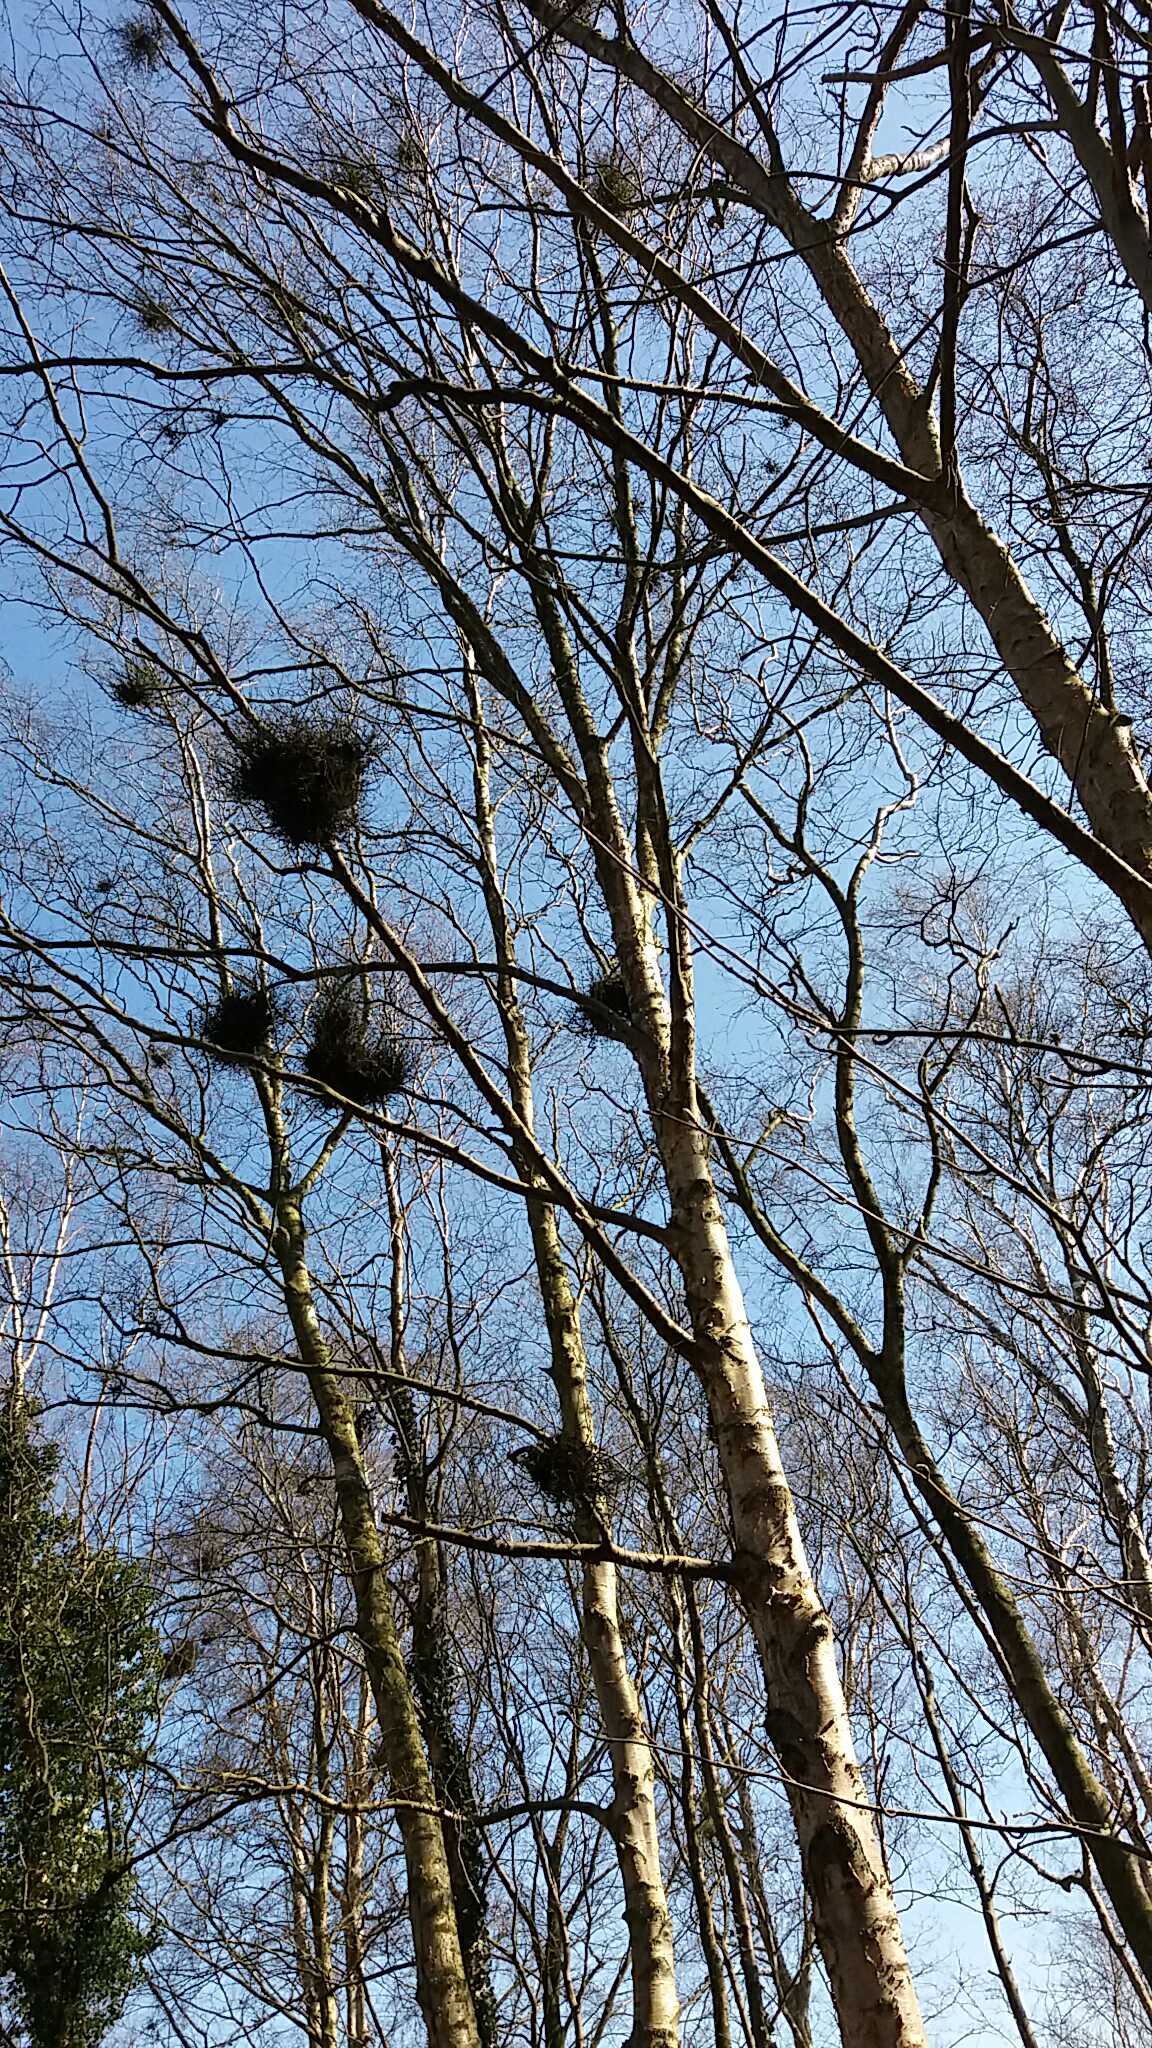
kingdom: Fungi
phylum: Ascomycota
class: Taphrinomycetes
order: Taphrinales
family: Taphrinaceae
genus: Taphrina
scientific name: Taphrina betulina
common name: hekse-sækdug
